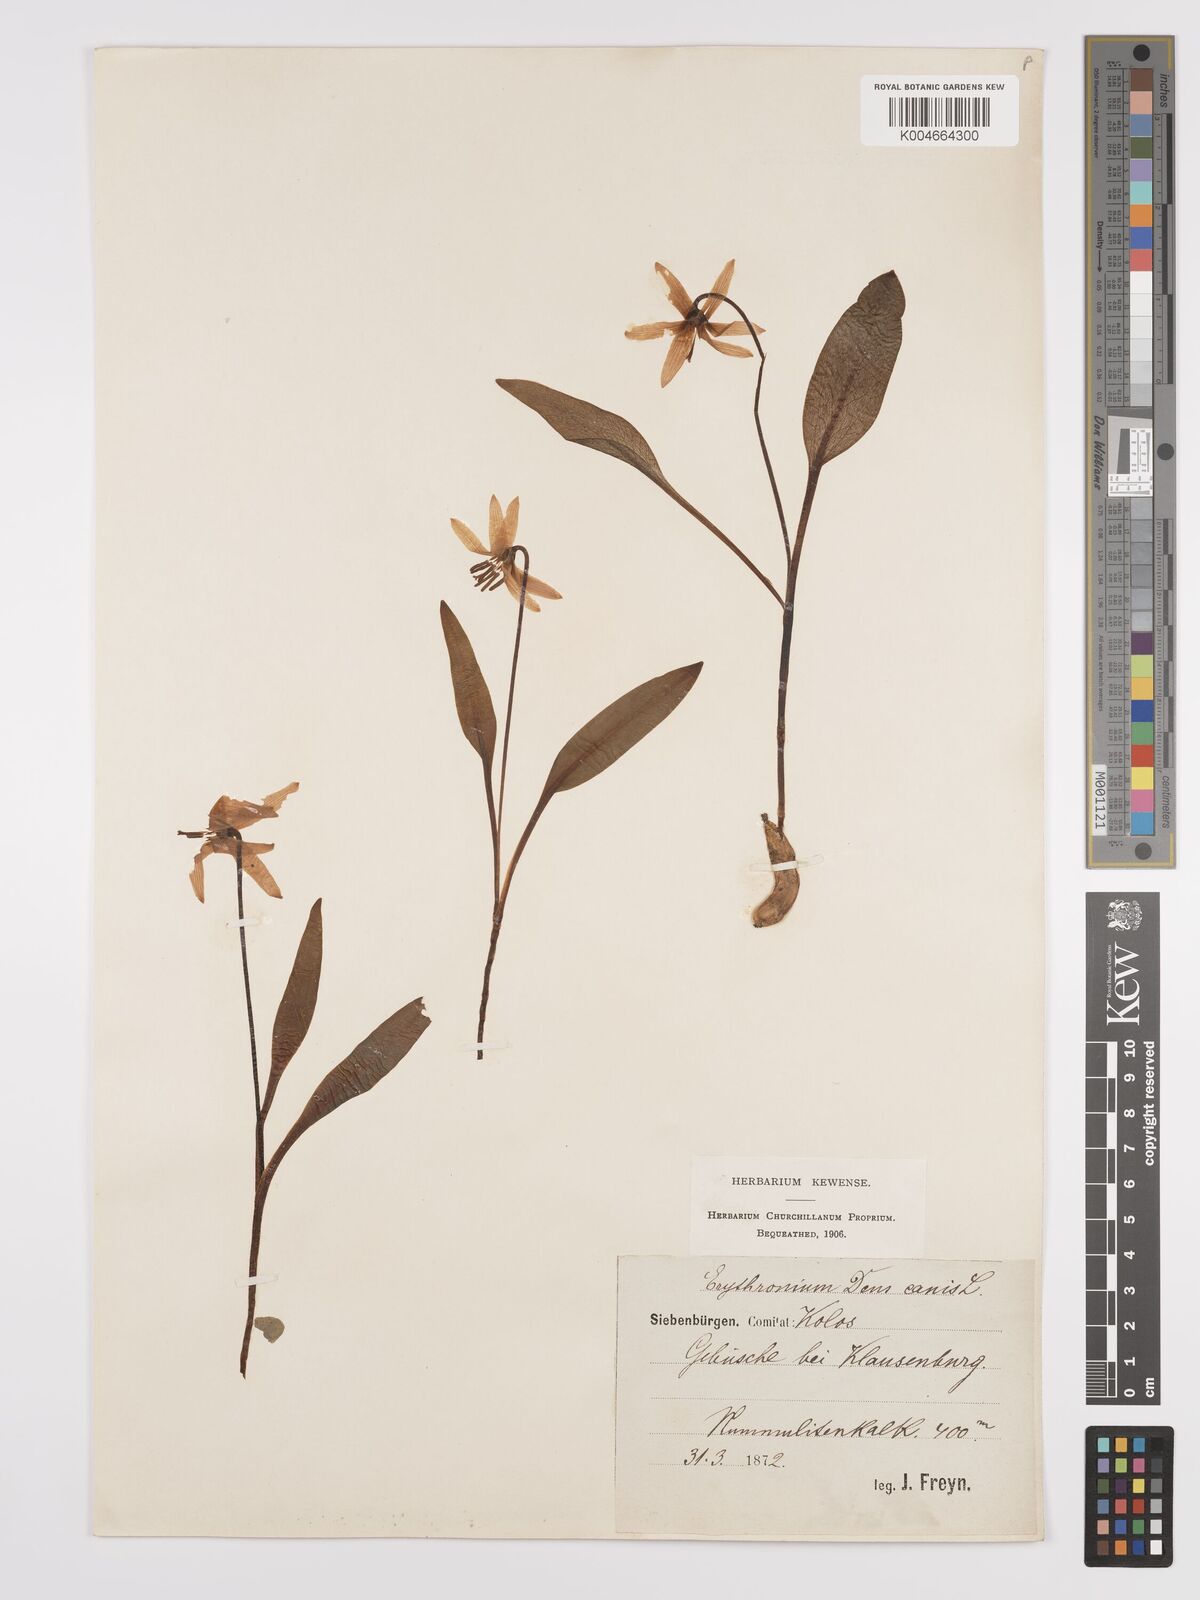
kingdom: Plantae
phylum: Tracheophyta
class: Liliopsida
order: Liliales
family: Liliaceae
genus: Erythronium
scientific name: Erythronium dens-canis
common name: Dog's-tooth-violet
